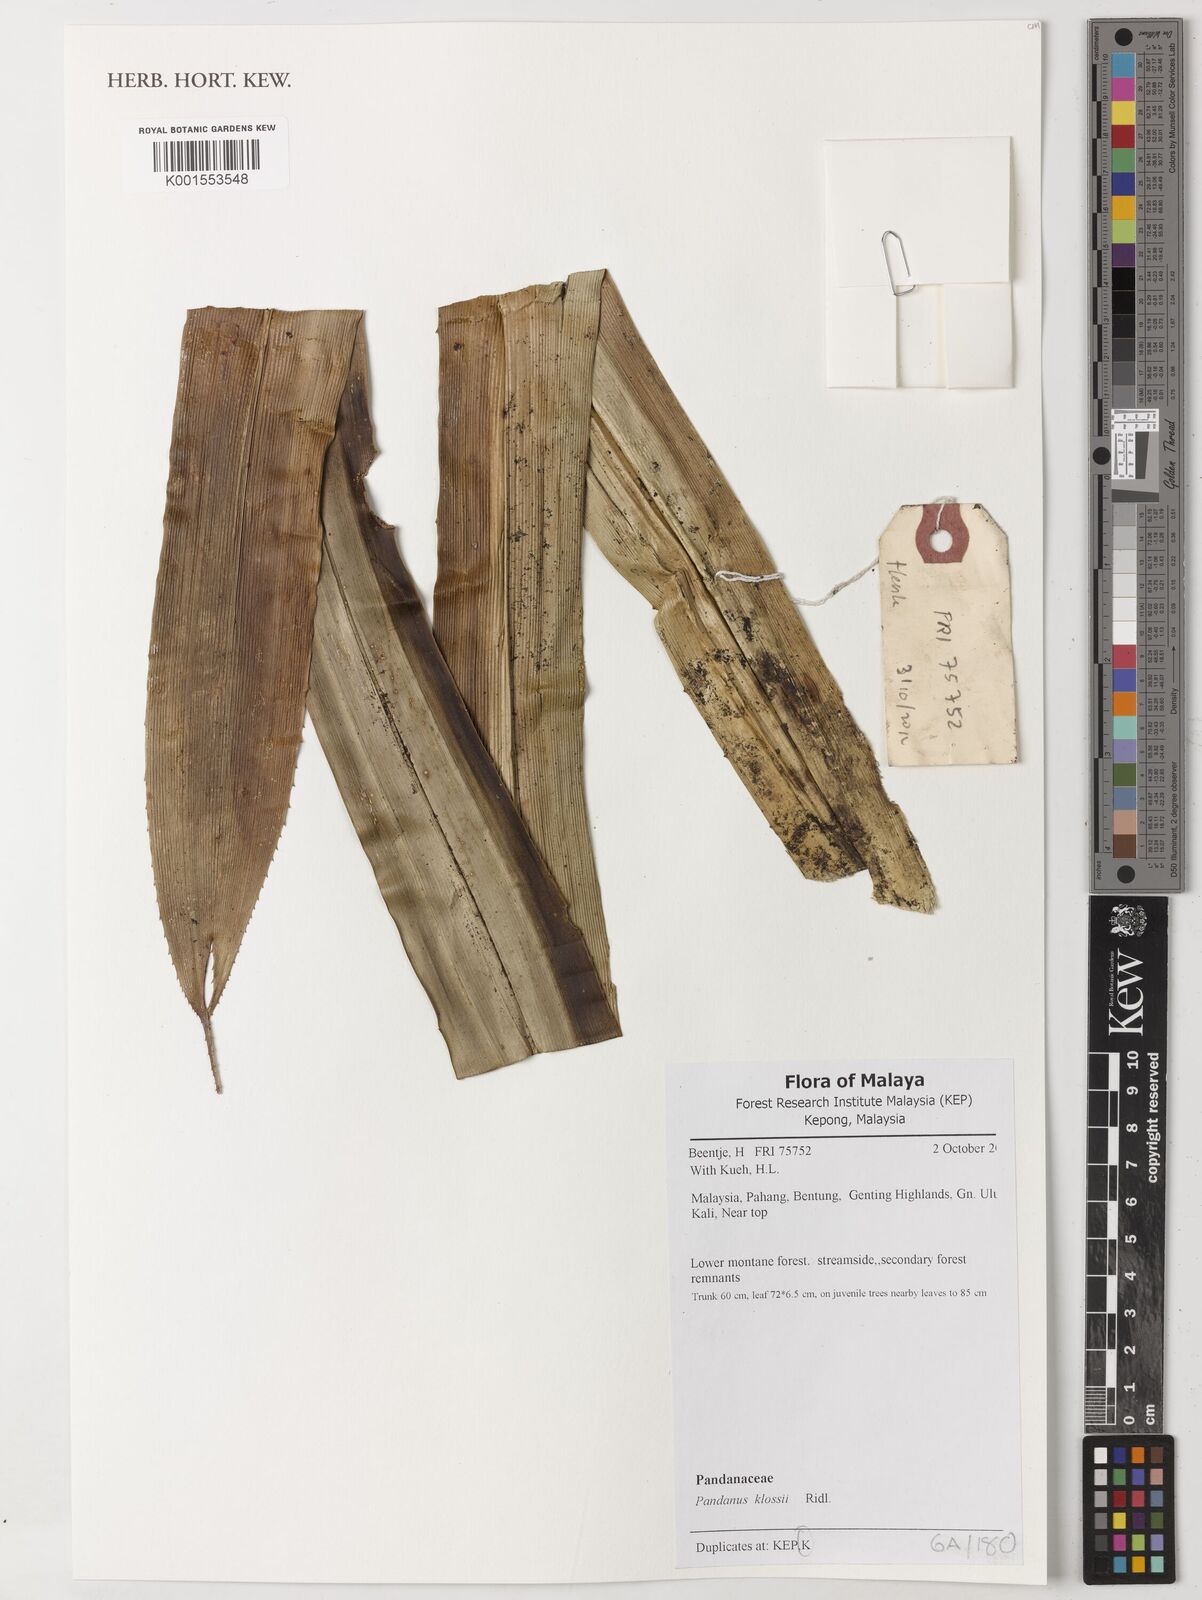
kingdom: Plantae
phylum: Tracheophyta
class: Liliopsida
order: Pandanales
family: Pandanaceae
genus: Pandanus
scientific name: Pandanus klossii
